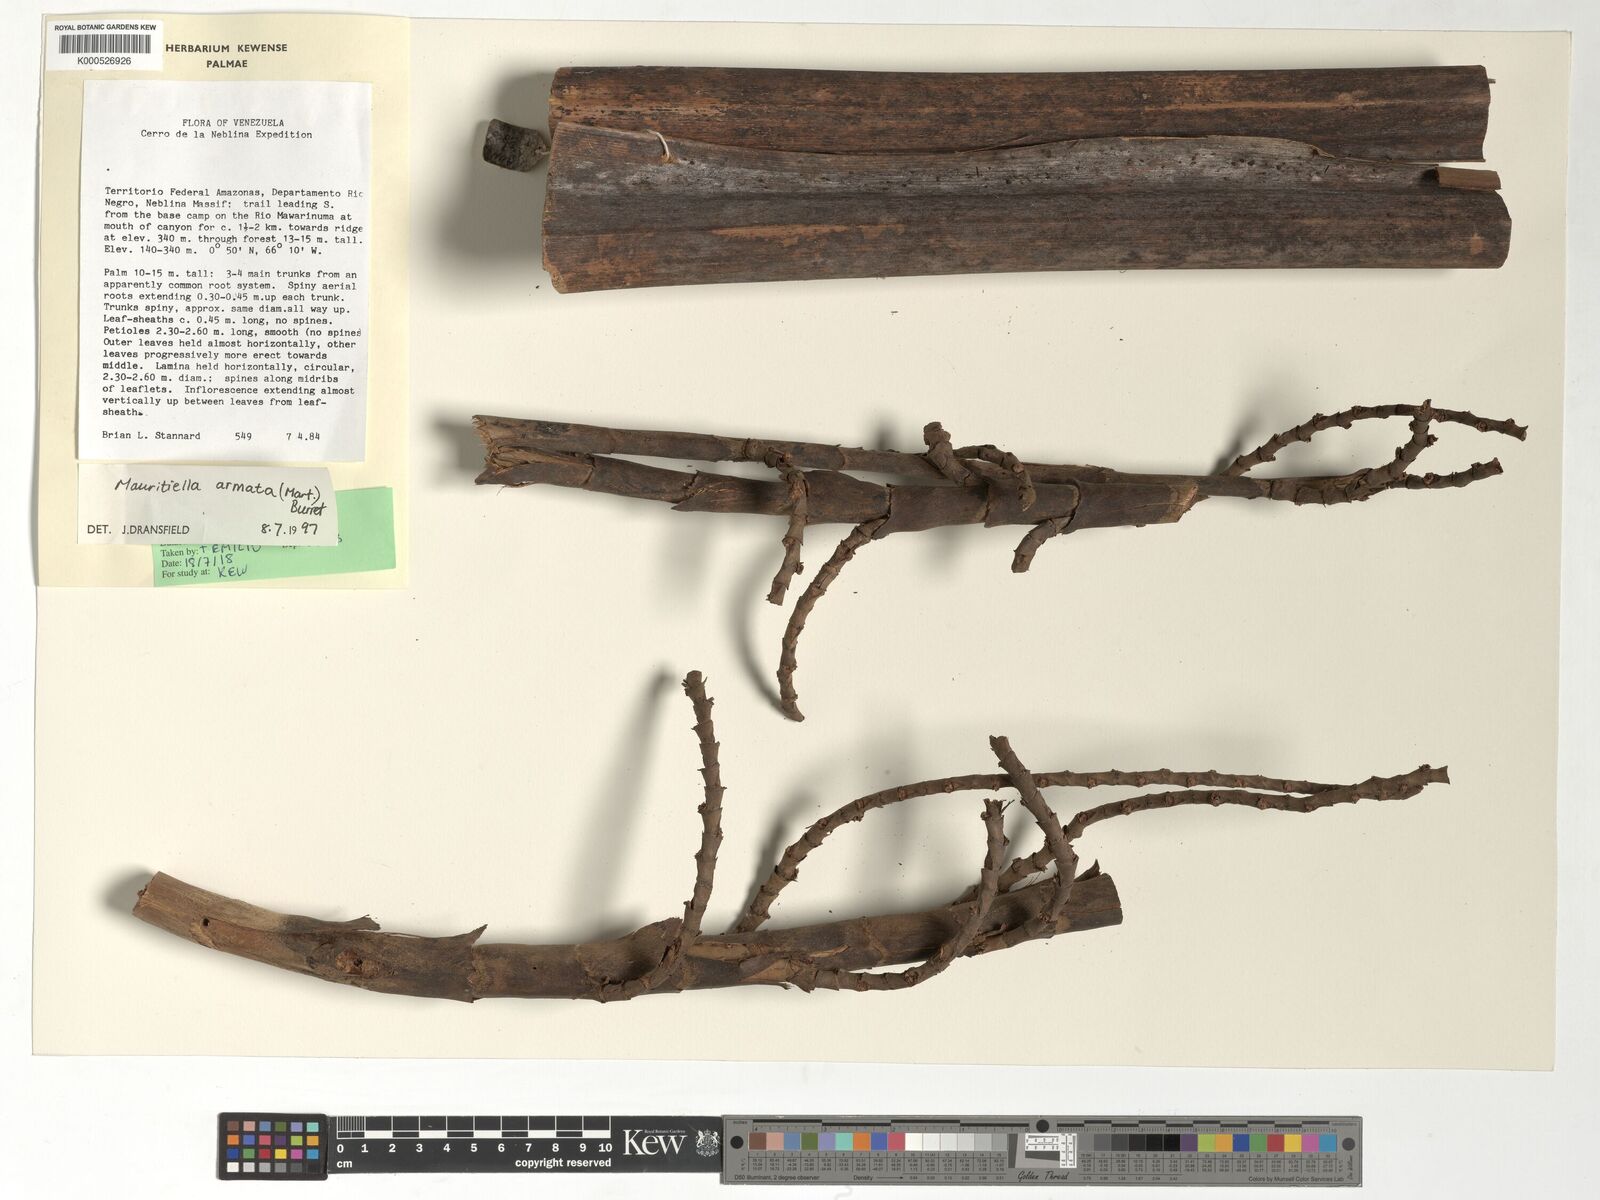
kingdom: Plantae
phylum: Tracheophyta
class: Liliopsida
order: Arecales
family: Arecaceae
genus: Mauritiella
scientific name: Mauritiella armata
